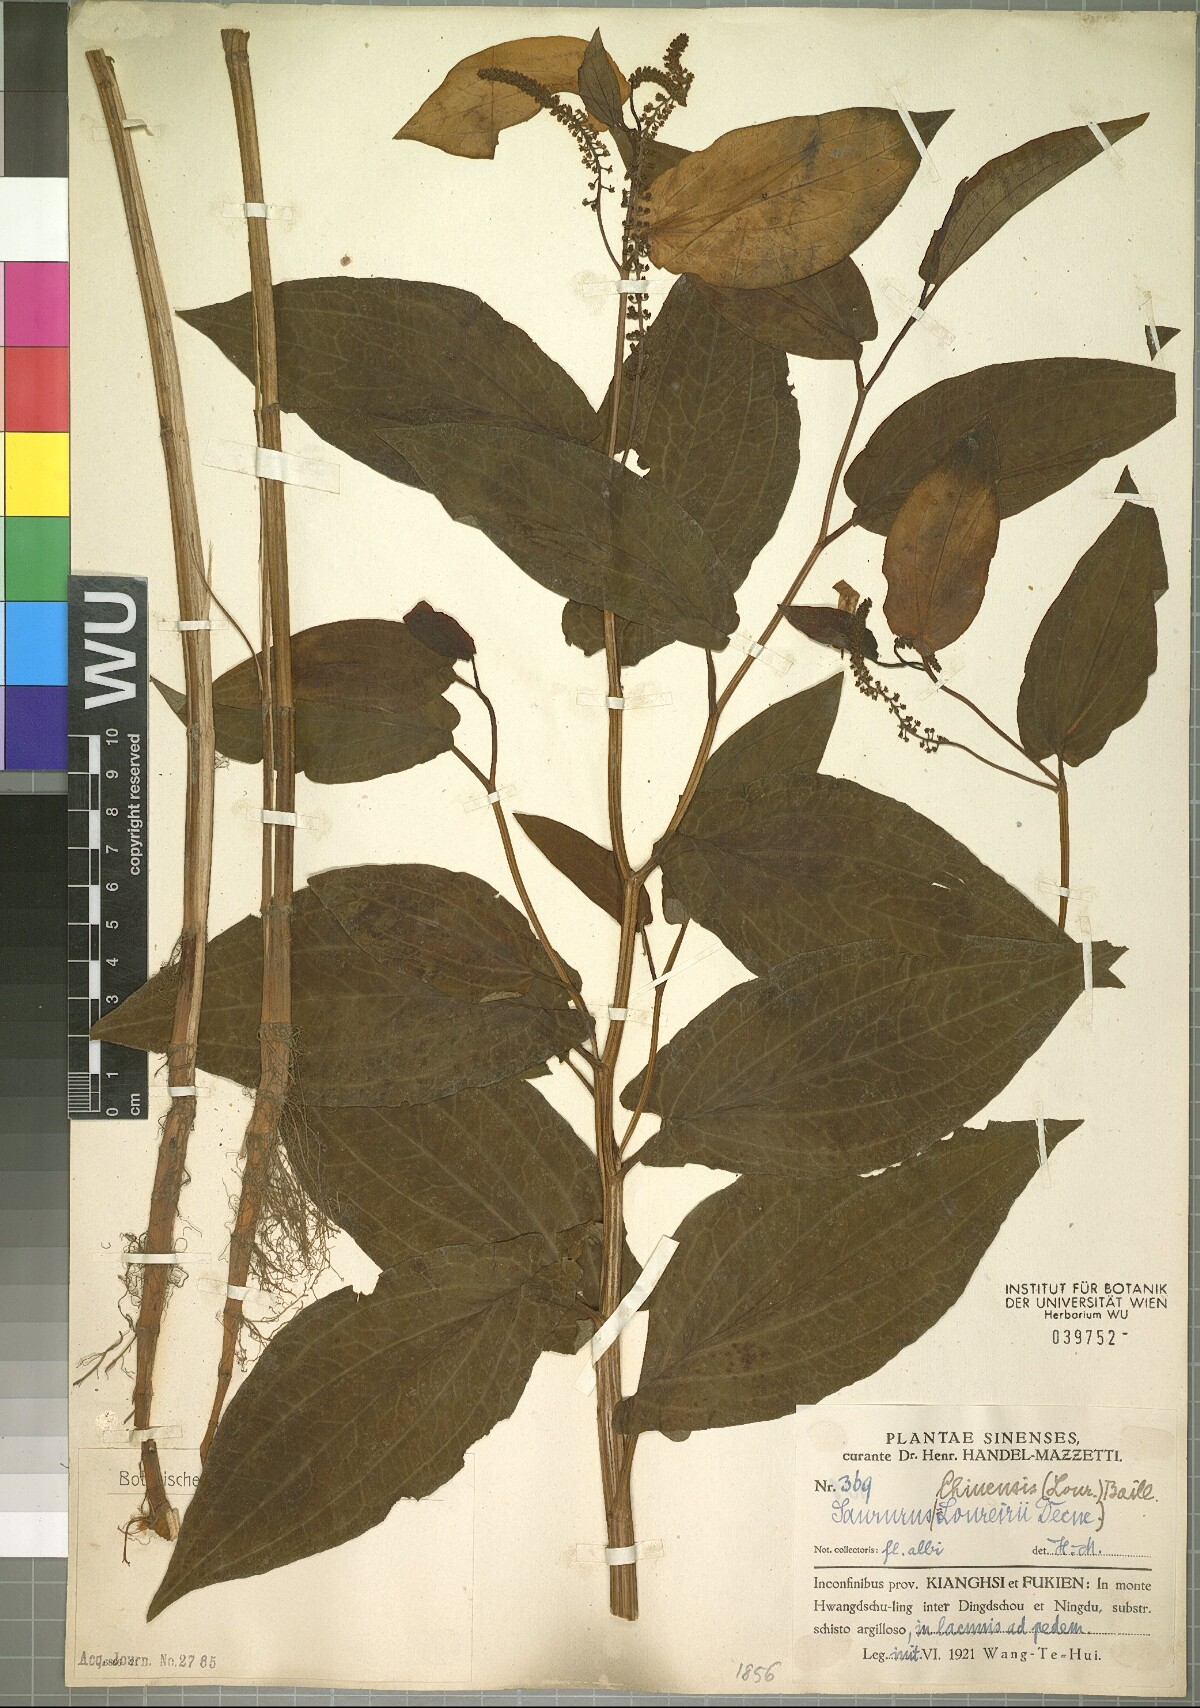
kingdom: Plantae
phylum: Tracheophyta
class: Magnoliopsida
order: Piperales
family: Saururaceae
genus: Saururus
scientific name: Saururus chinensis
